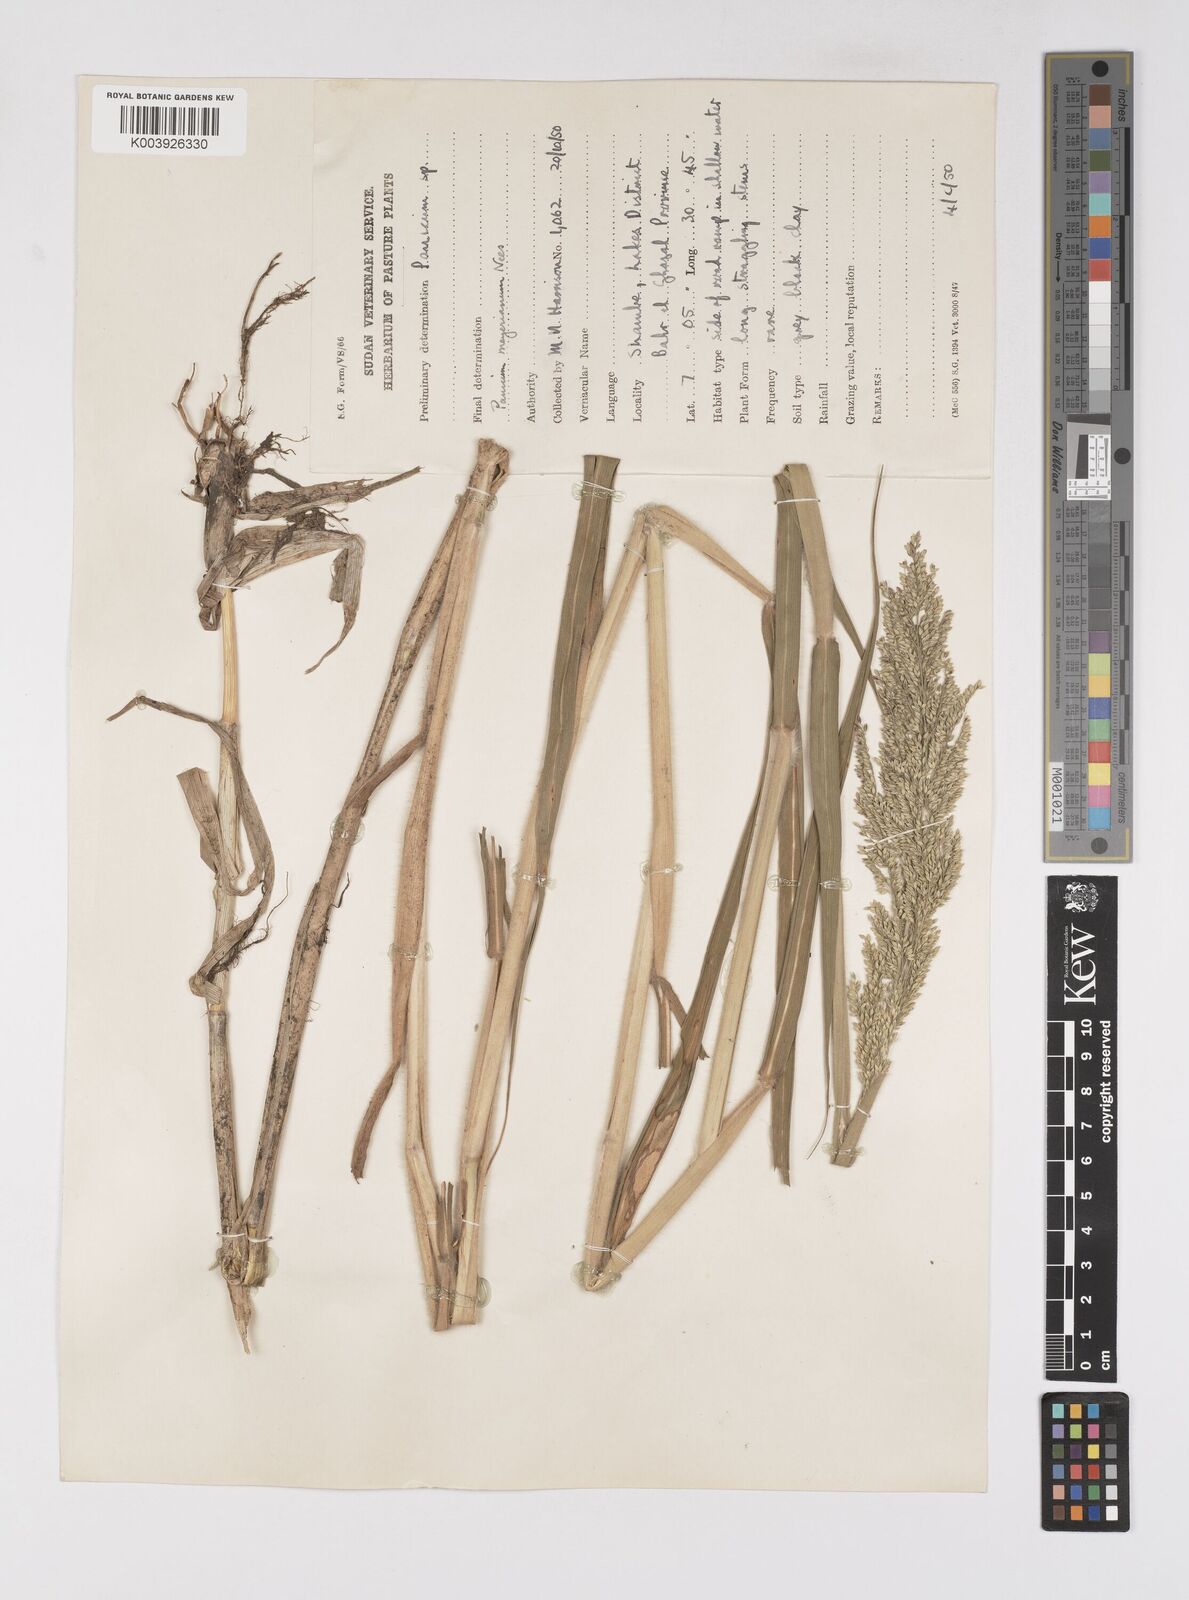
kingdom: Plantae
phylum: Tracheophyta
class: Liliopsida
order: Poales
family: Poaceae
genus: Eriochloa
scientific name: Eriochloa meyeriana
